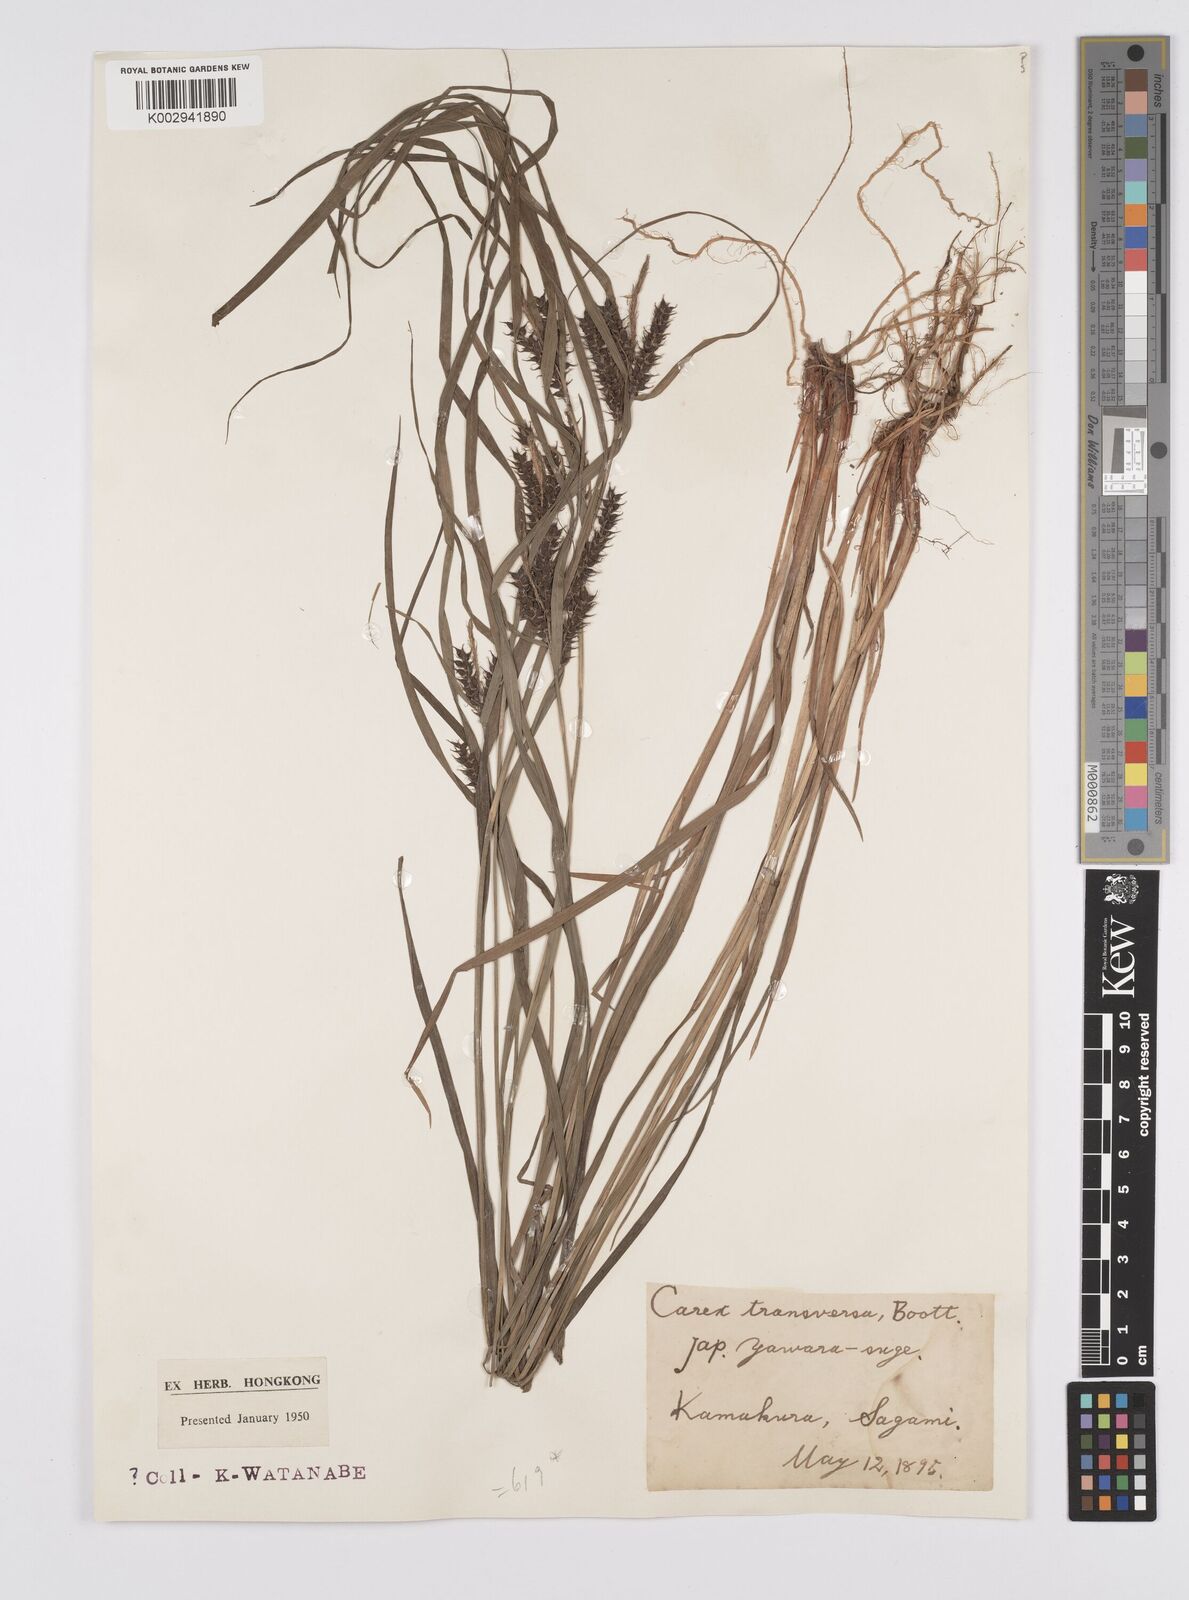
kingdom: Plantae
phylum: Tracheophyta
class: Liliopsida
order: Poales
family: Cyperaceae
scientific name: Cyperaceae
